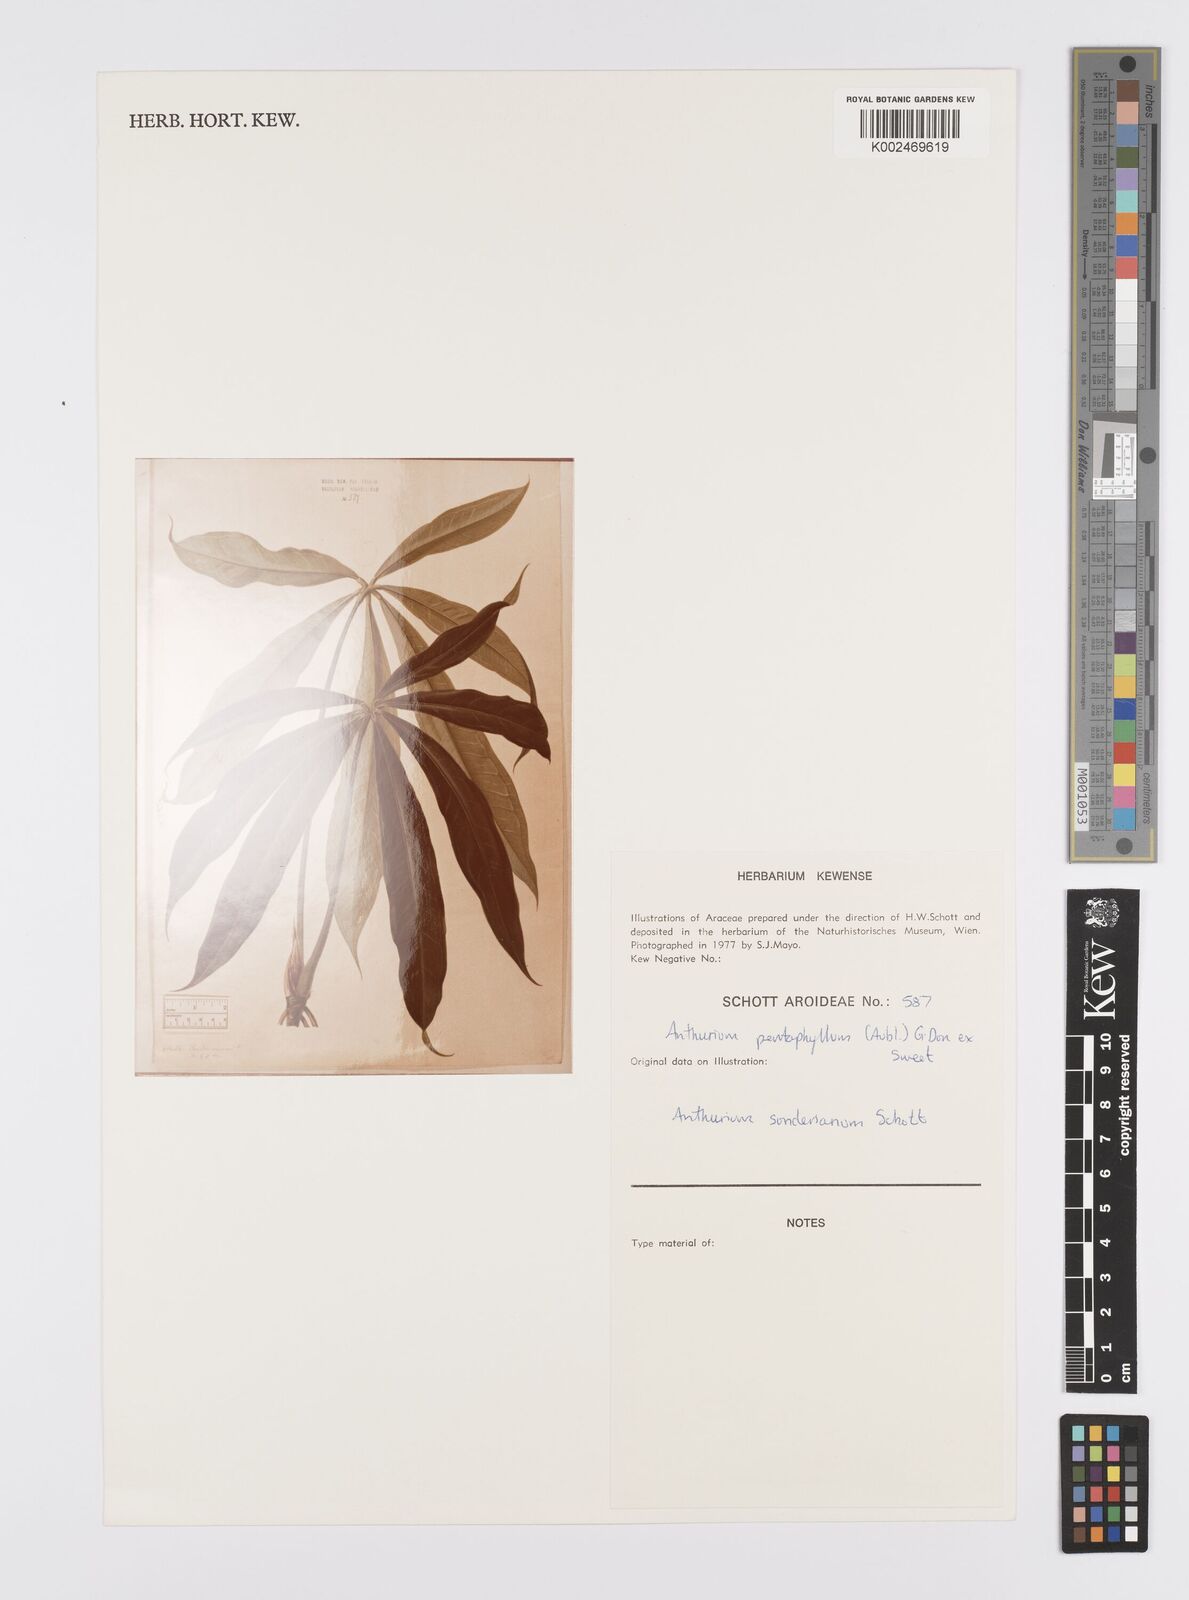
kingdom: Plantae
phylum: Tracheophyta
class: Liliopsida
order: Alismatales
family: Araceae
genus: Anthurium
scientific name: Anthurium pentaphyllum
